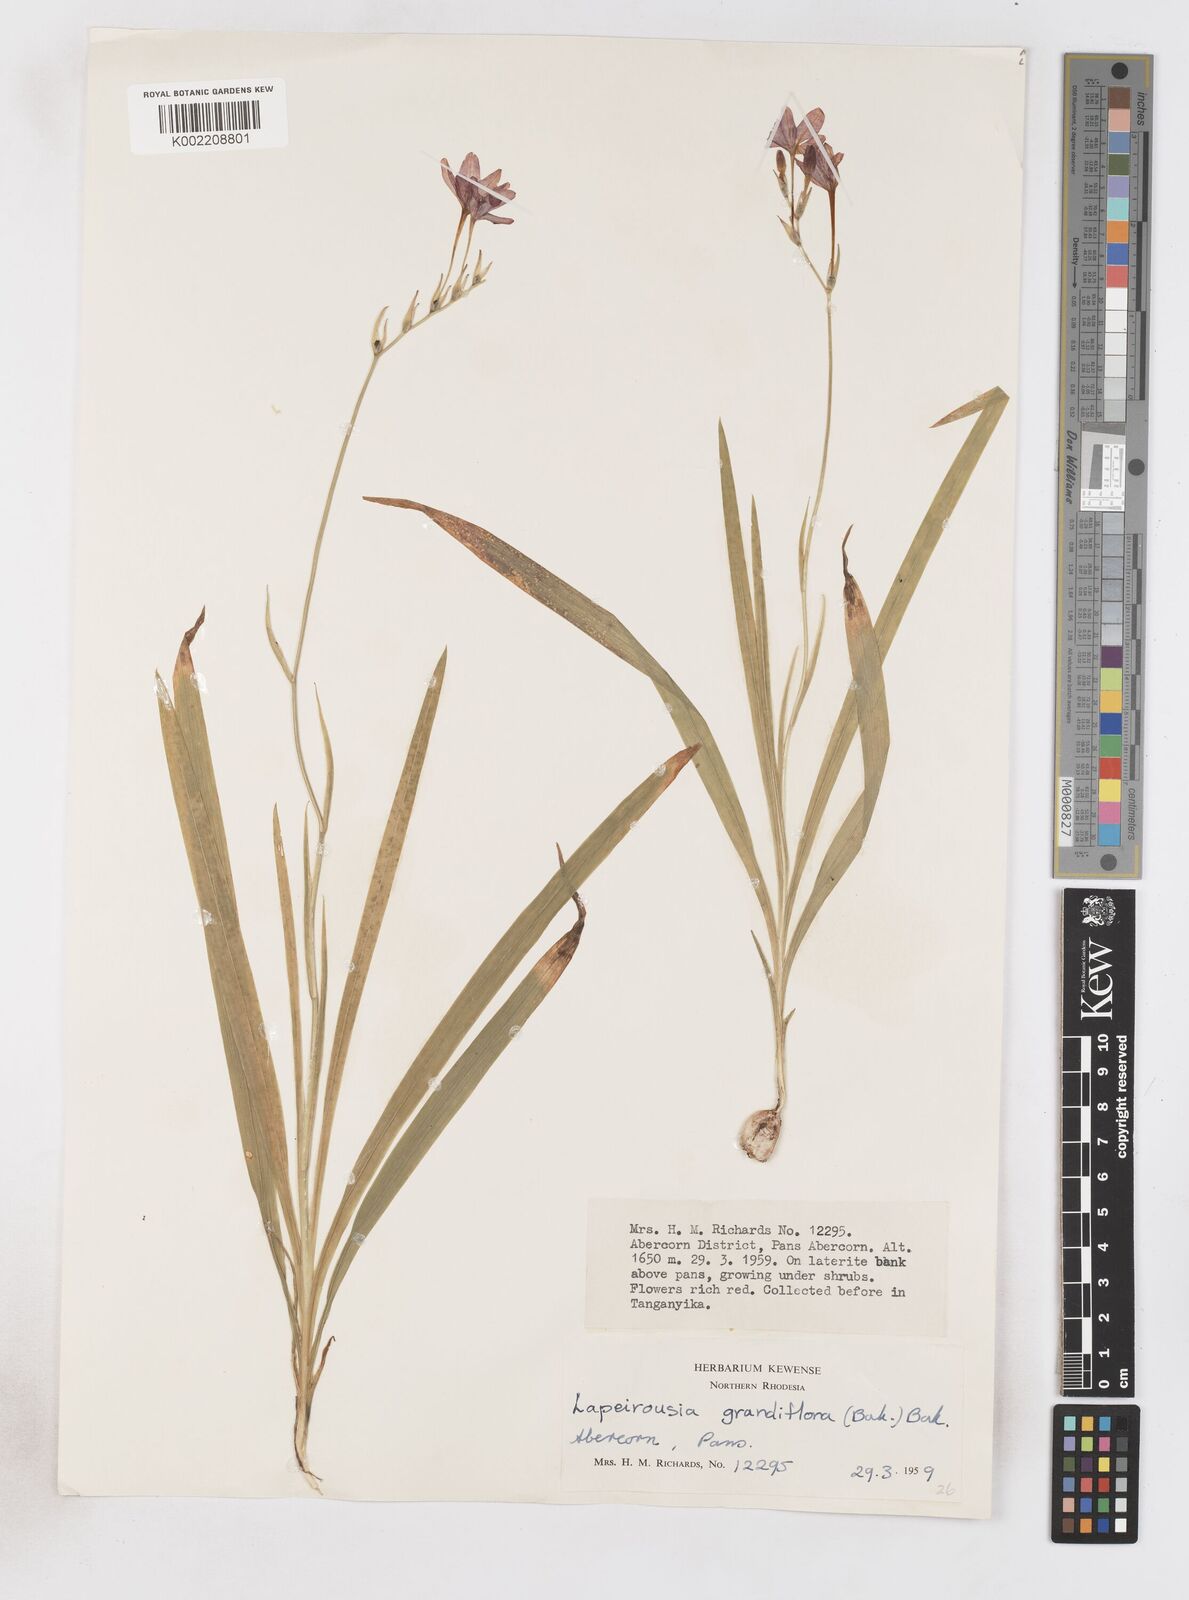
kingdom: Plantae
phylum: Tracheophyta
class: Liliopsida
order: Asparagales
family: Iridaceae
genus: Freesia
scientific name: Freesia laxa
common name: False freesia
